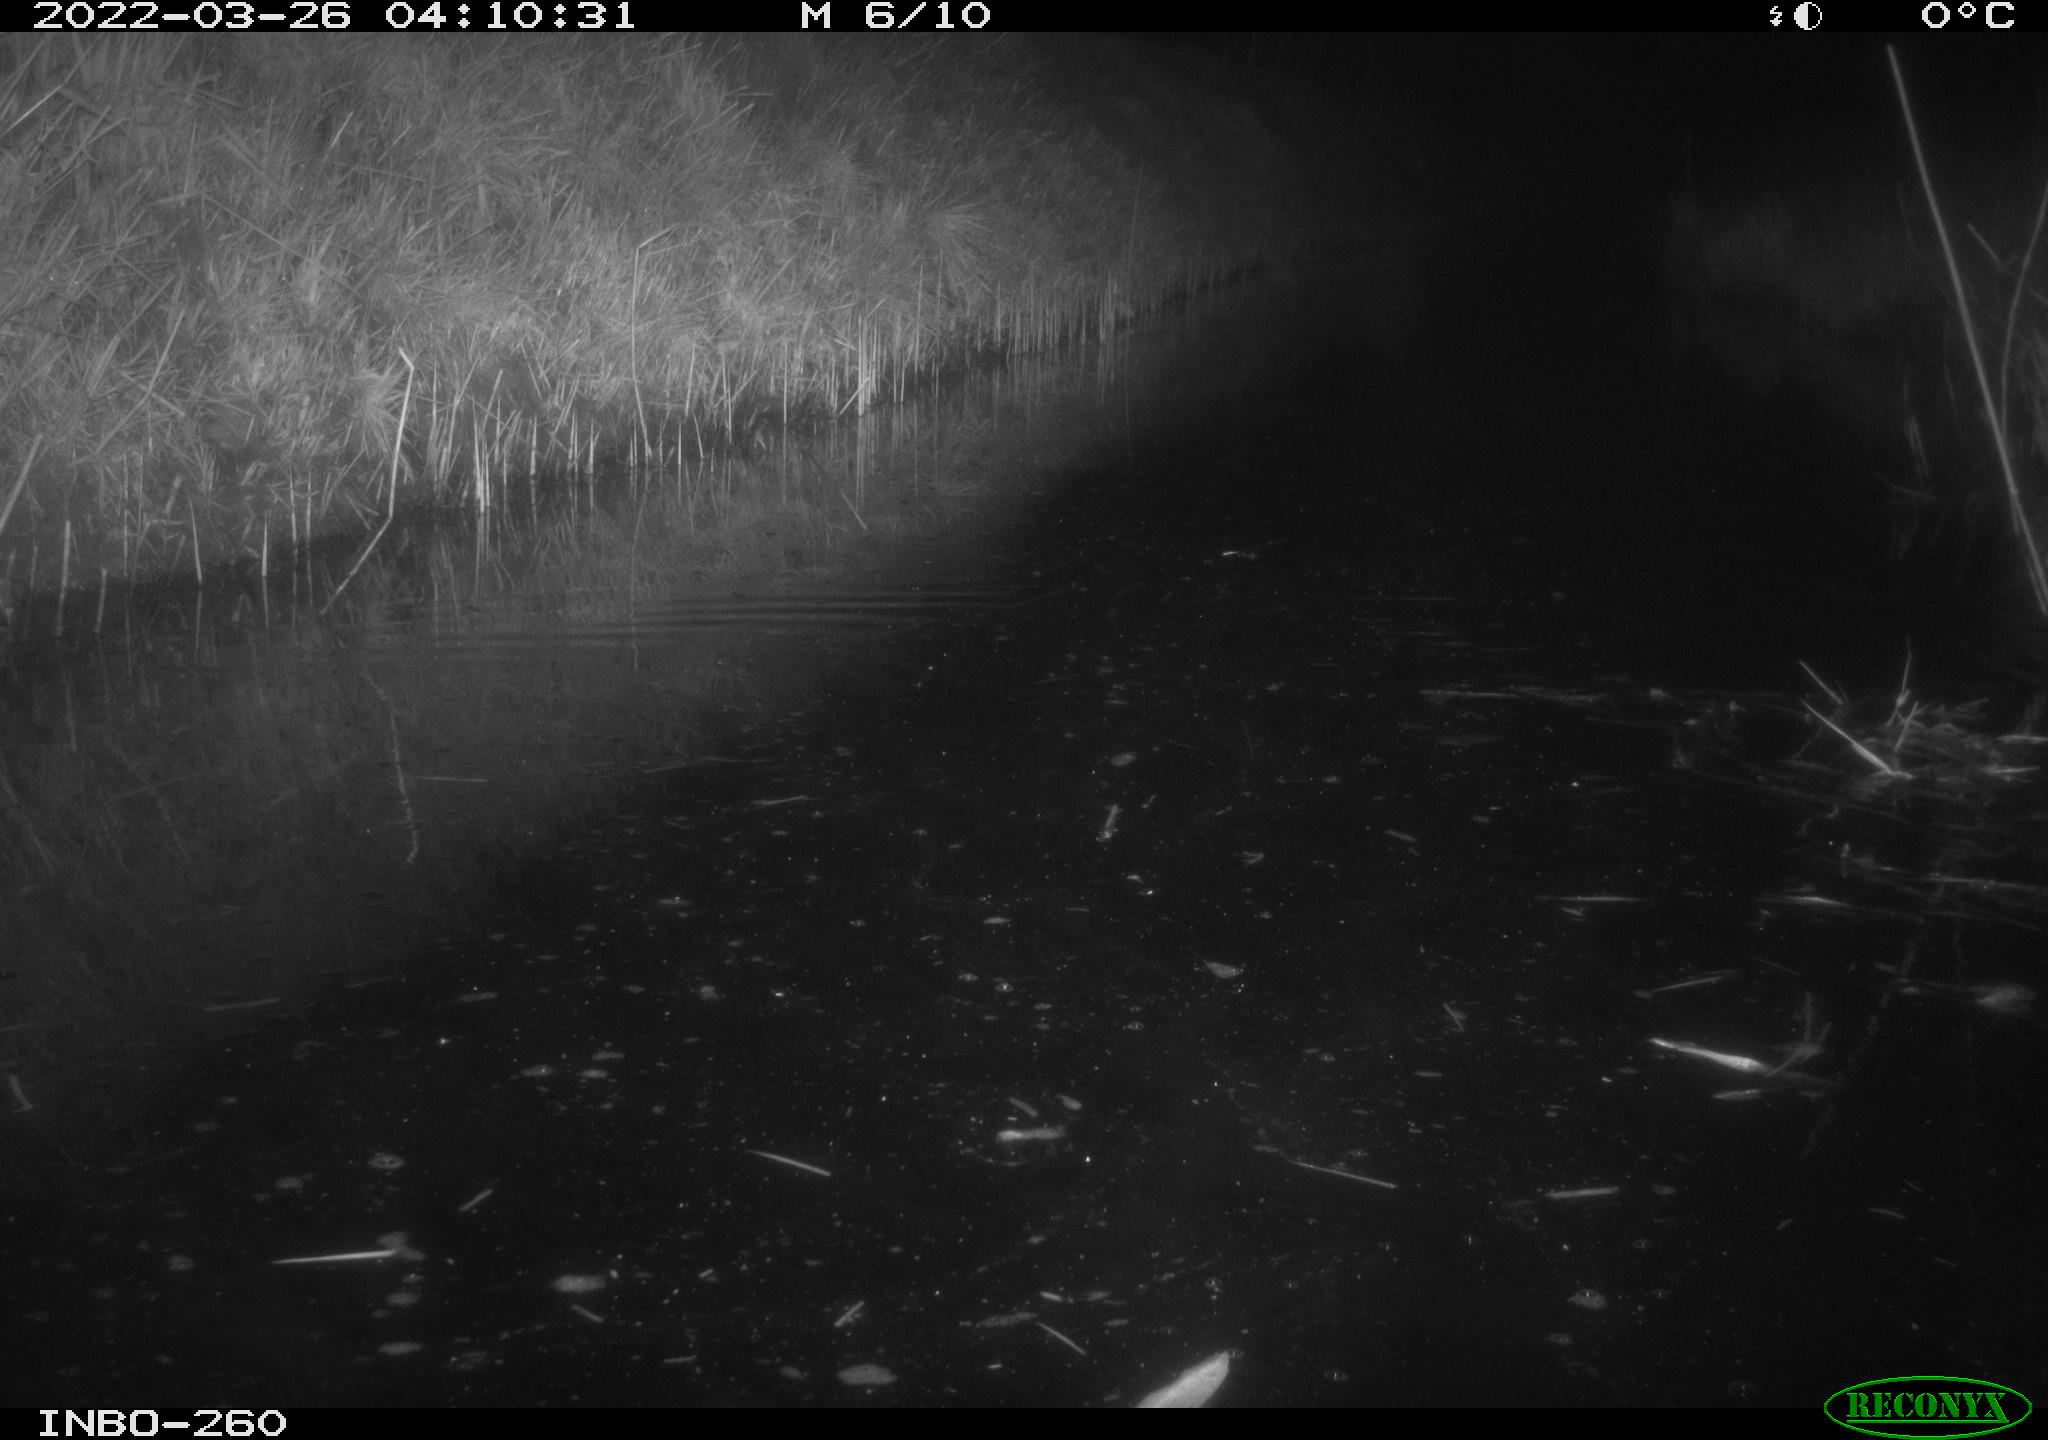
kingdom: Animalia
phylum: Chordata
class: Mammalia
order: Rodentia
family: Muridae
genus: Rattus
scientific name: Rattus norvegicus
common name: Brown rat
